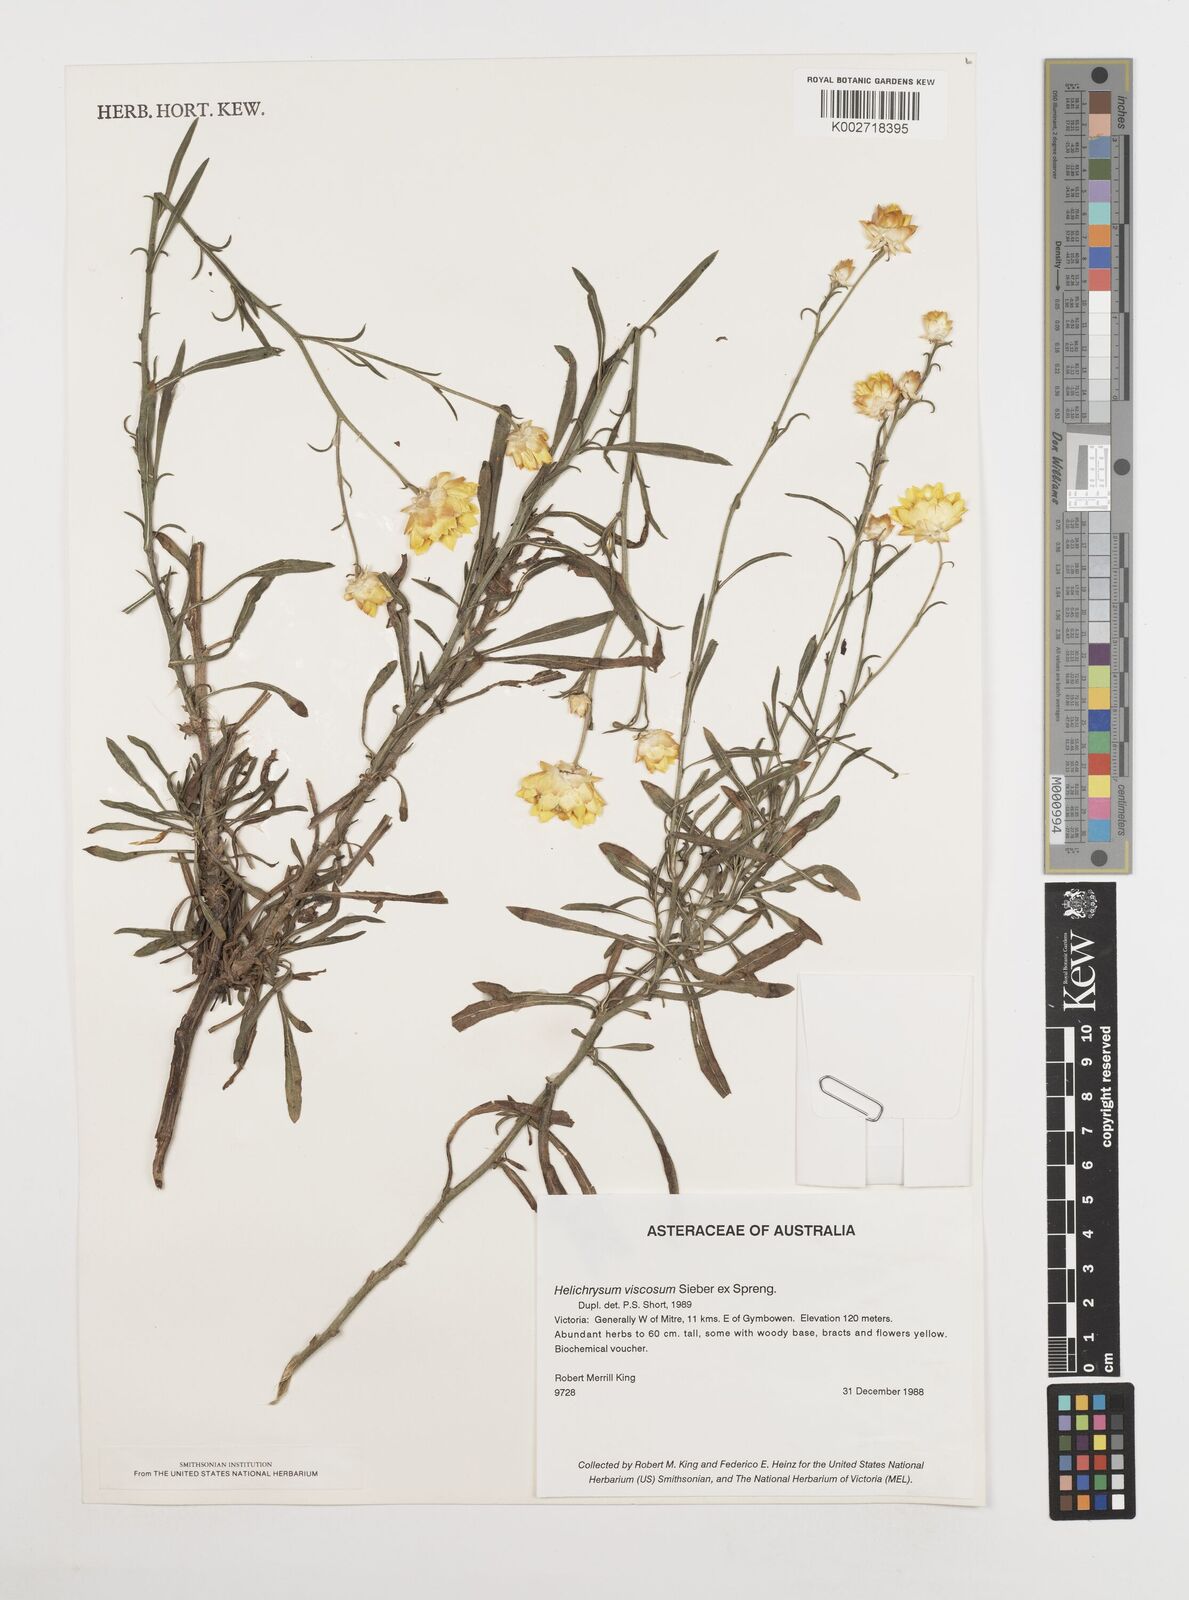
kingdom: Plantae
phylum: Tracheophyta
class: Magnoliopsida
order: Asterales
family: Asteraceae
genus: Xerochrysum
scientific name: Xerochrysum viscosum
